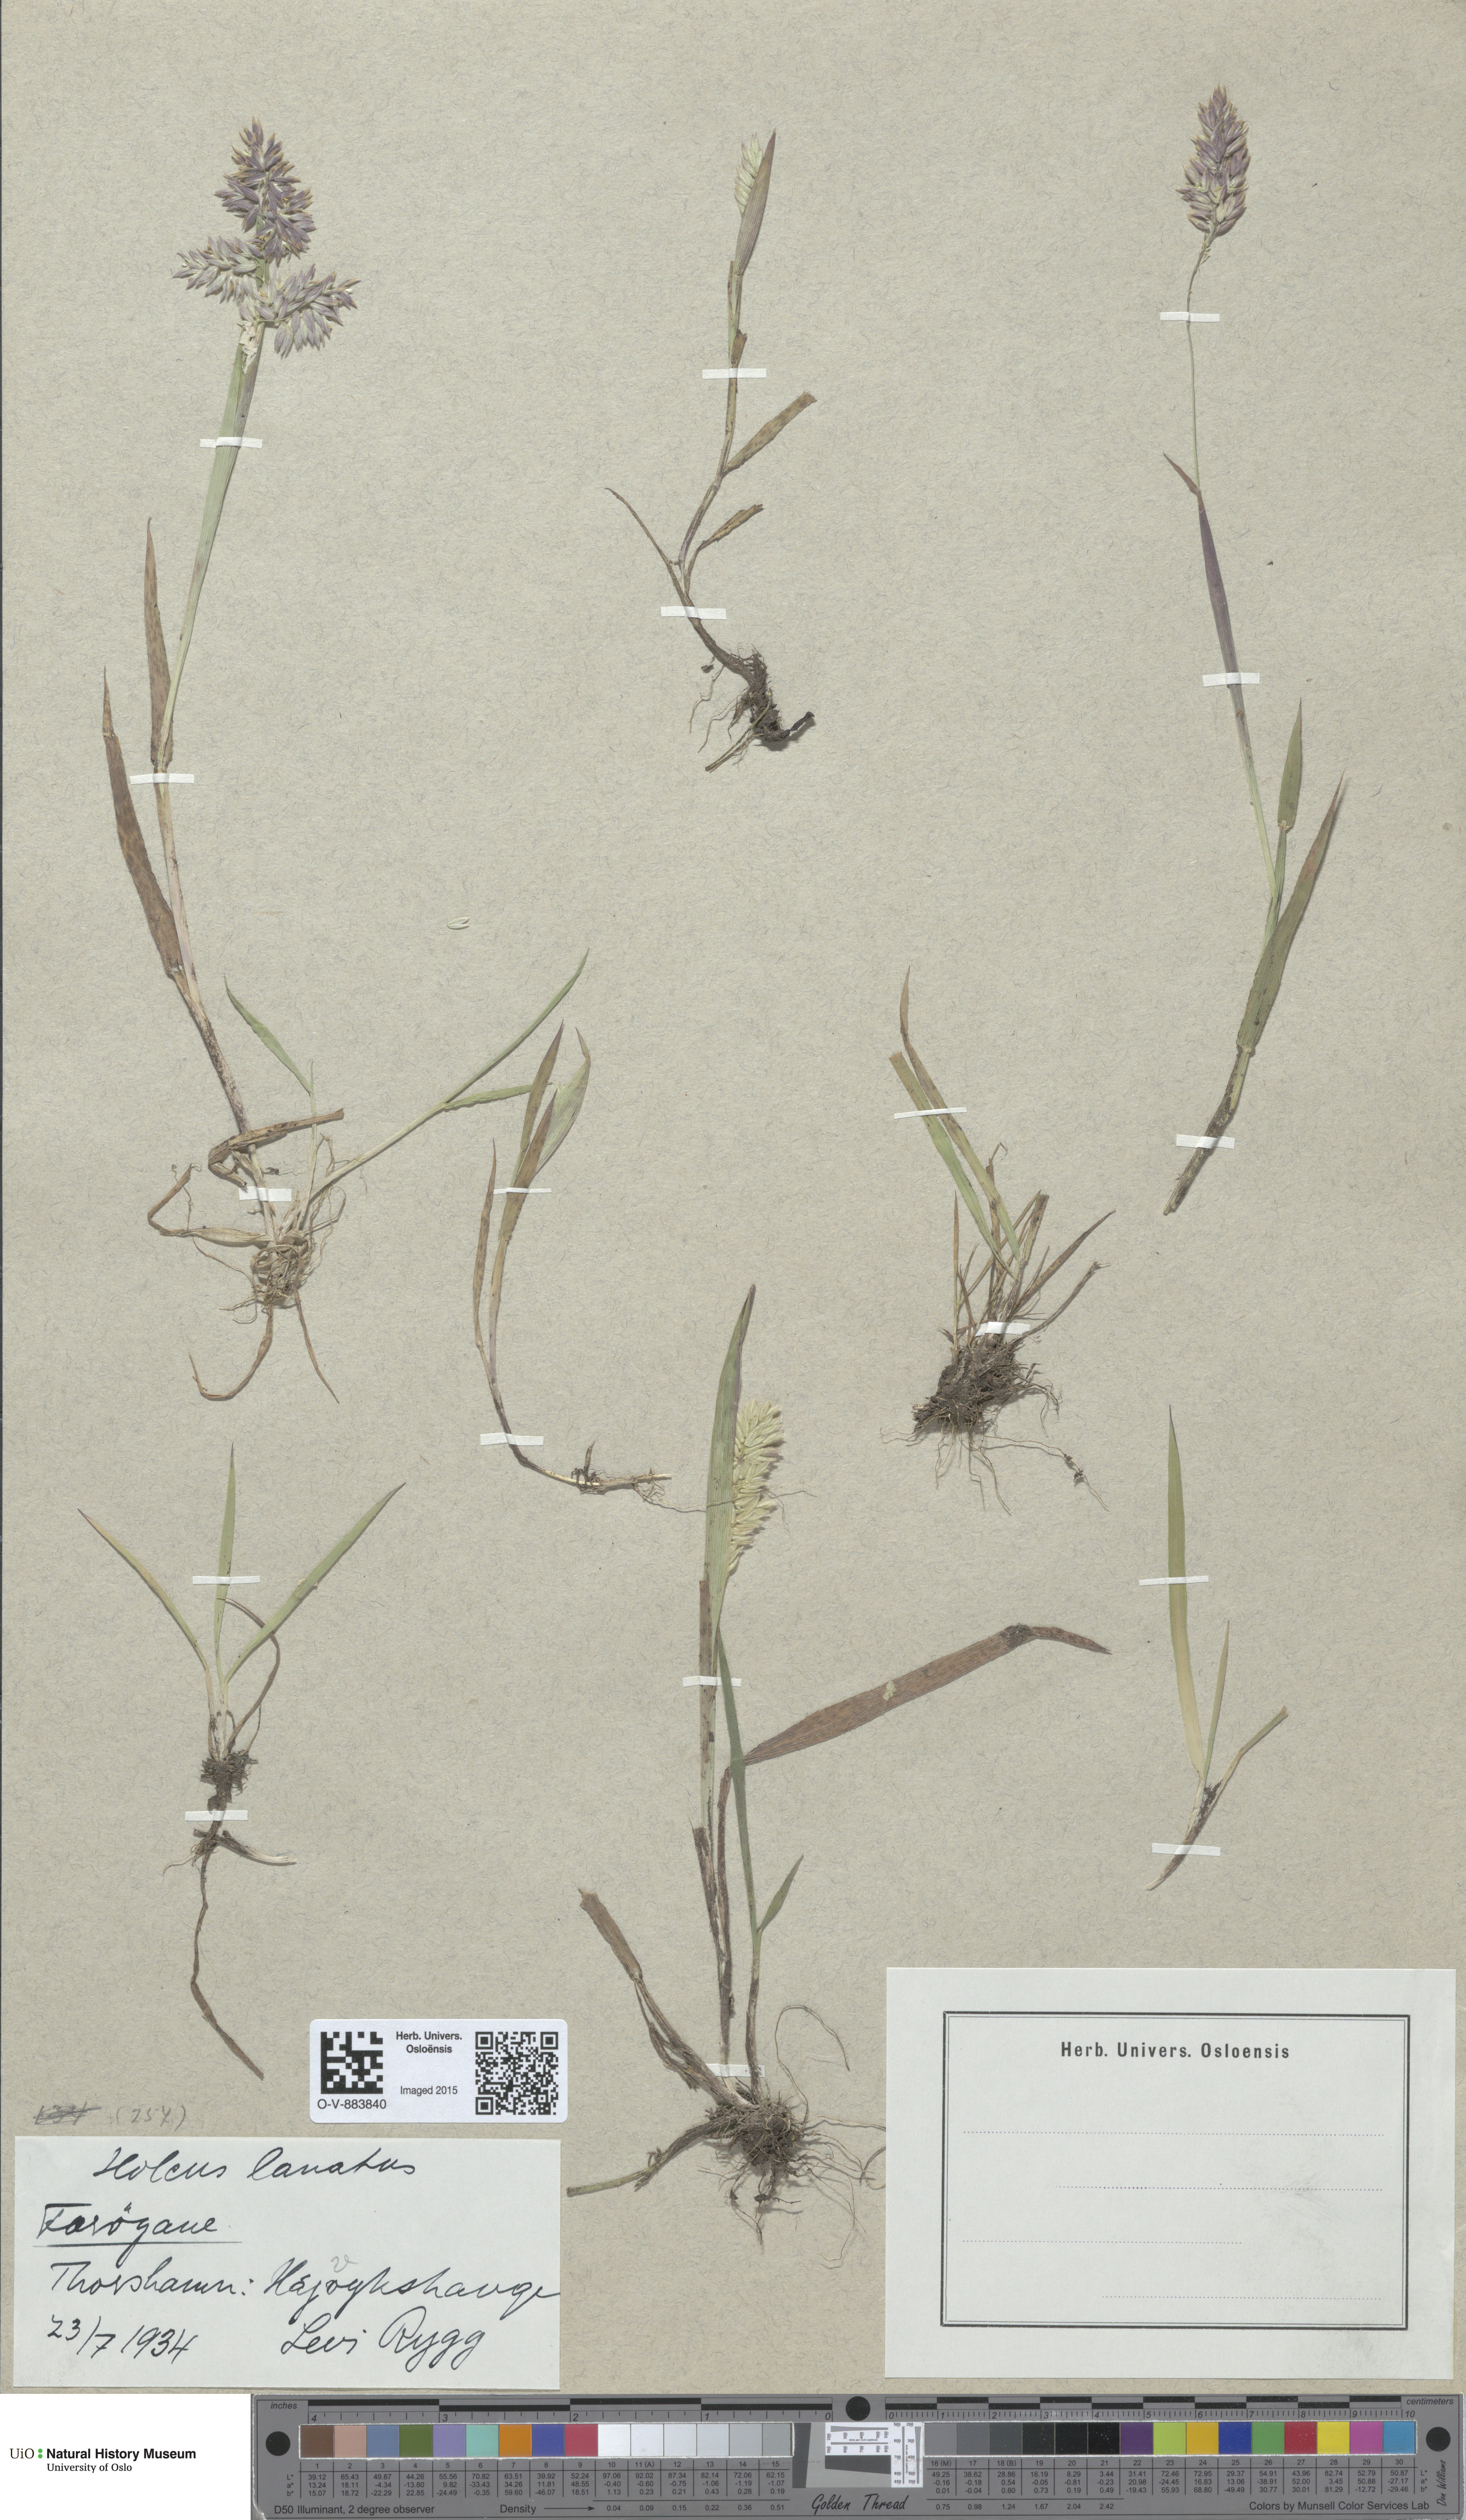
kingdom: Plantae
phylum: Tracheophyta
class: Liliopsida
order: Poales
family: Poaceae
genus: Holcus
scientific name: Holcus lanatus
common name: Yorkshire-fog
